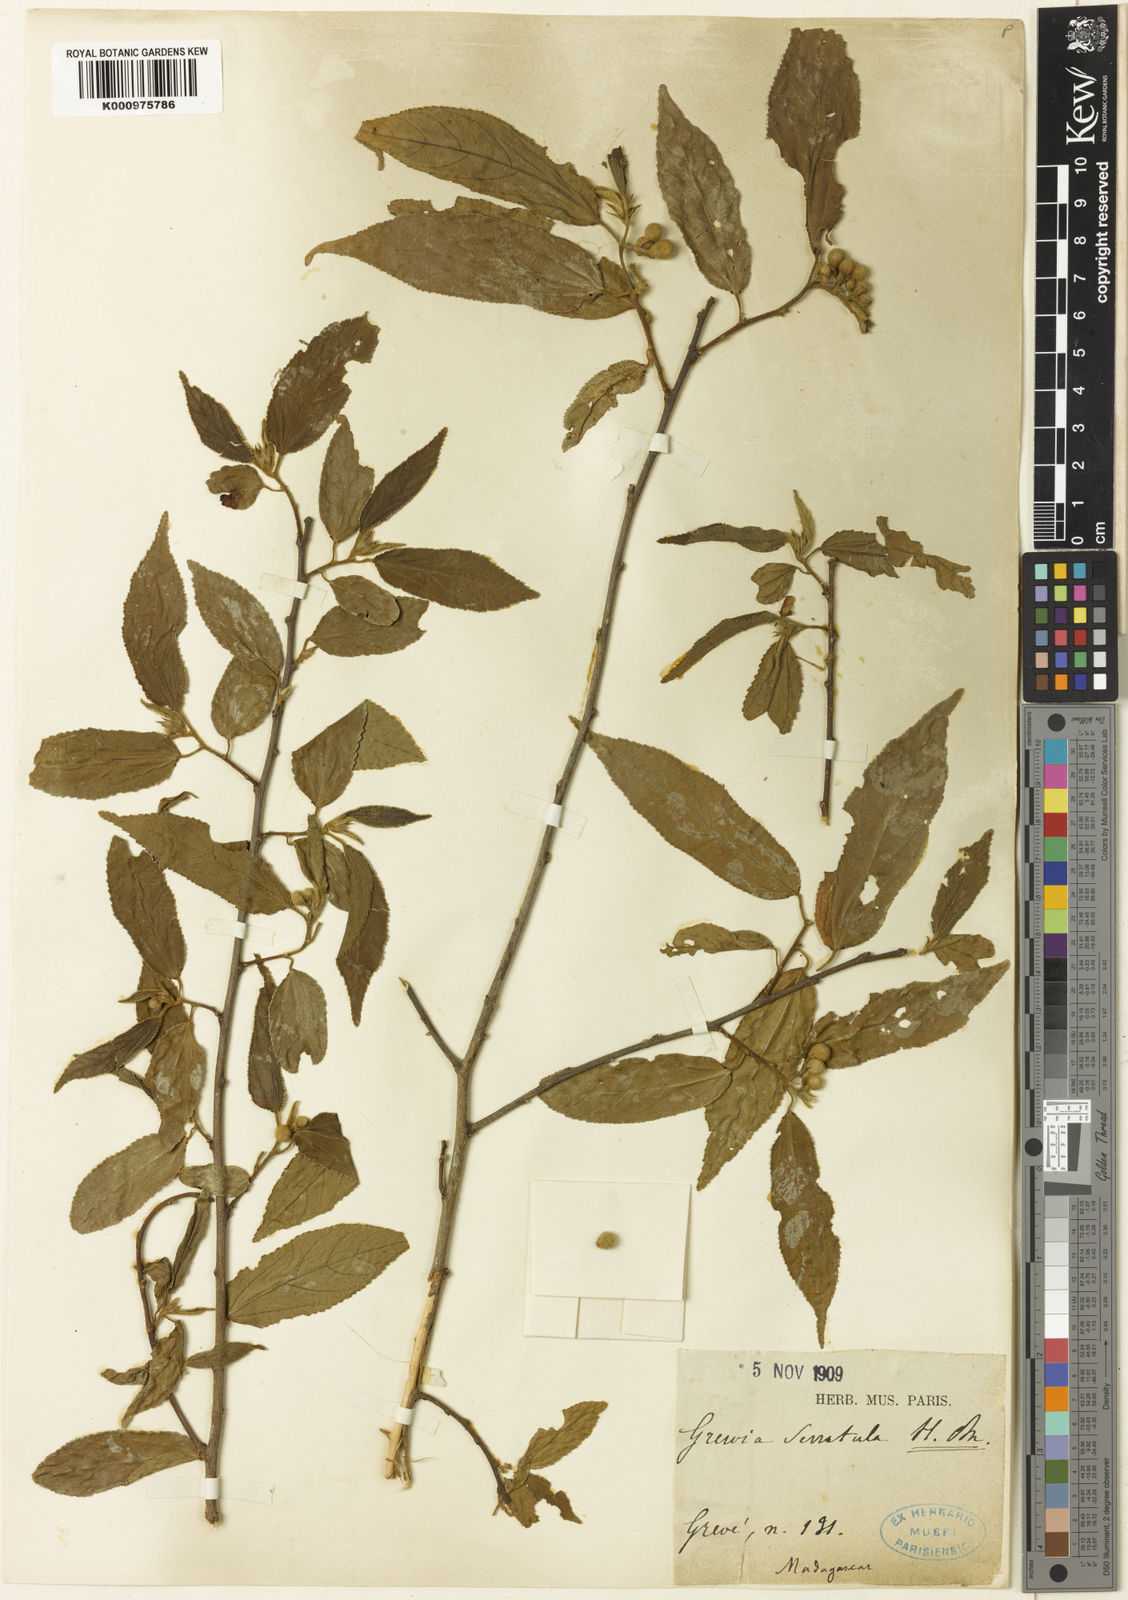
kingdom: Plantae
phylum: Tracheophyta
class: Magnoliopsida
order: Malvales
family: Malvaceae
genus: Grewia
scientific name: Grewia glandulosa
